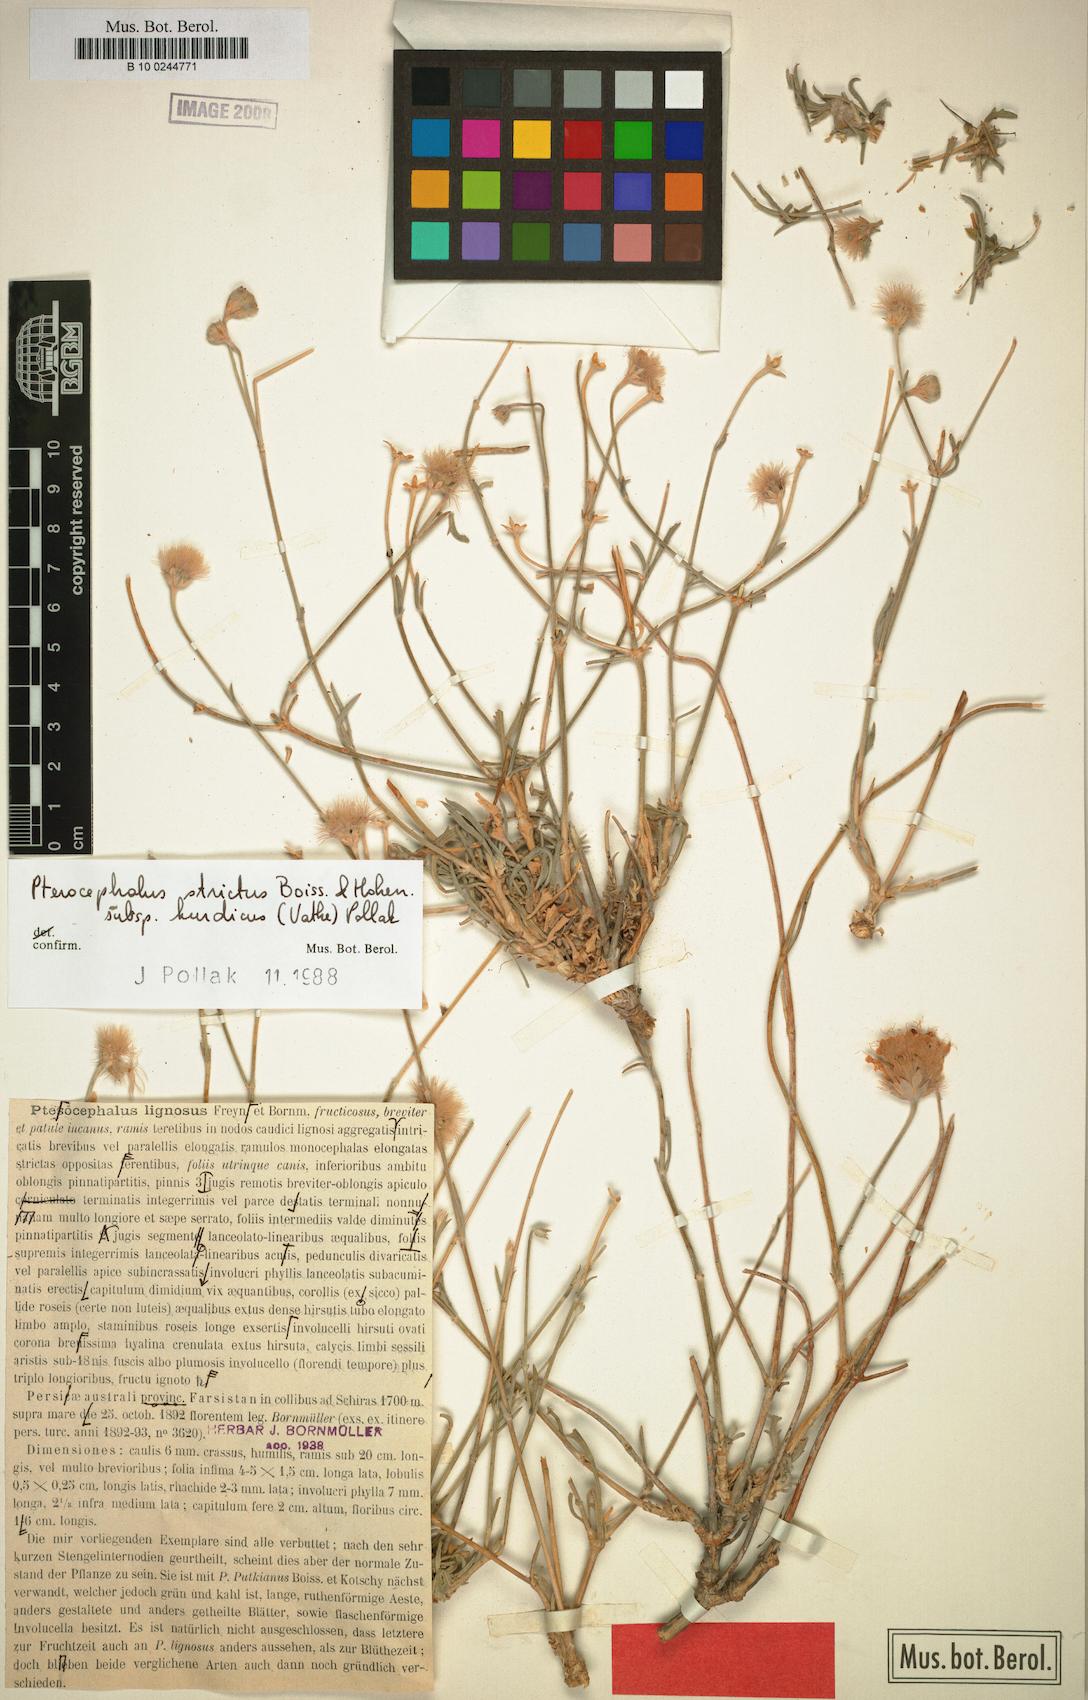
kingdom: Plantae
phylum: Tracheophyta
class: Magnoliopsida
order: Dipsacales
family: Caprifoliaceae
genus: Pterocephalus
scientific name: Pterocephalus strictus
